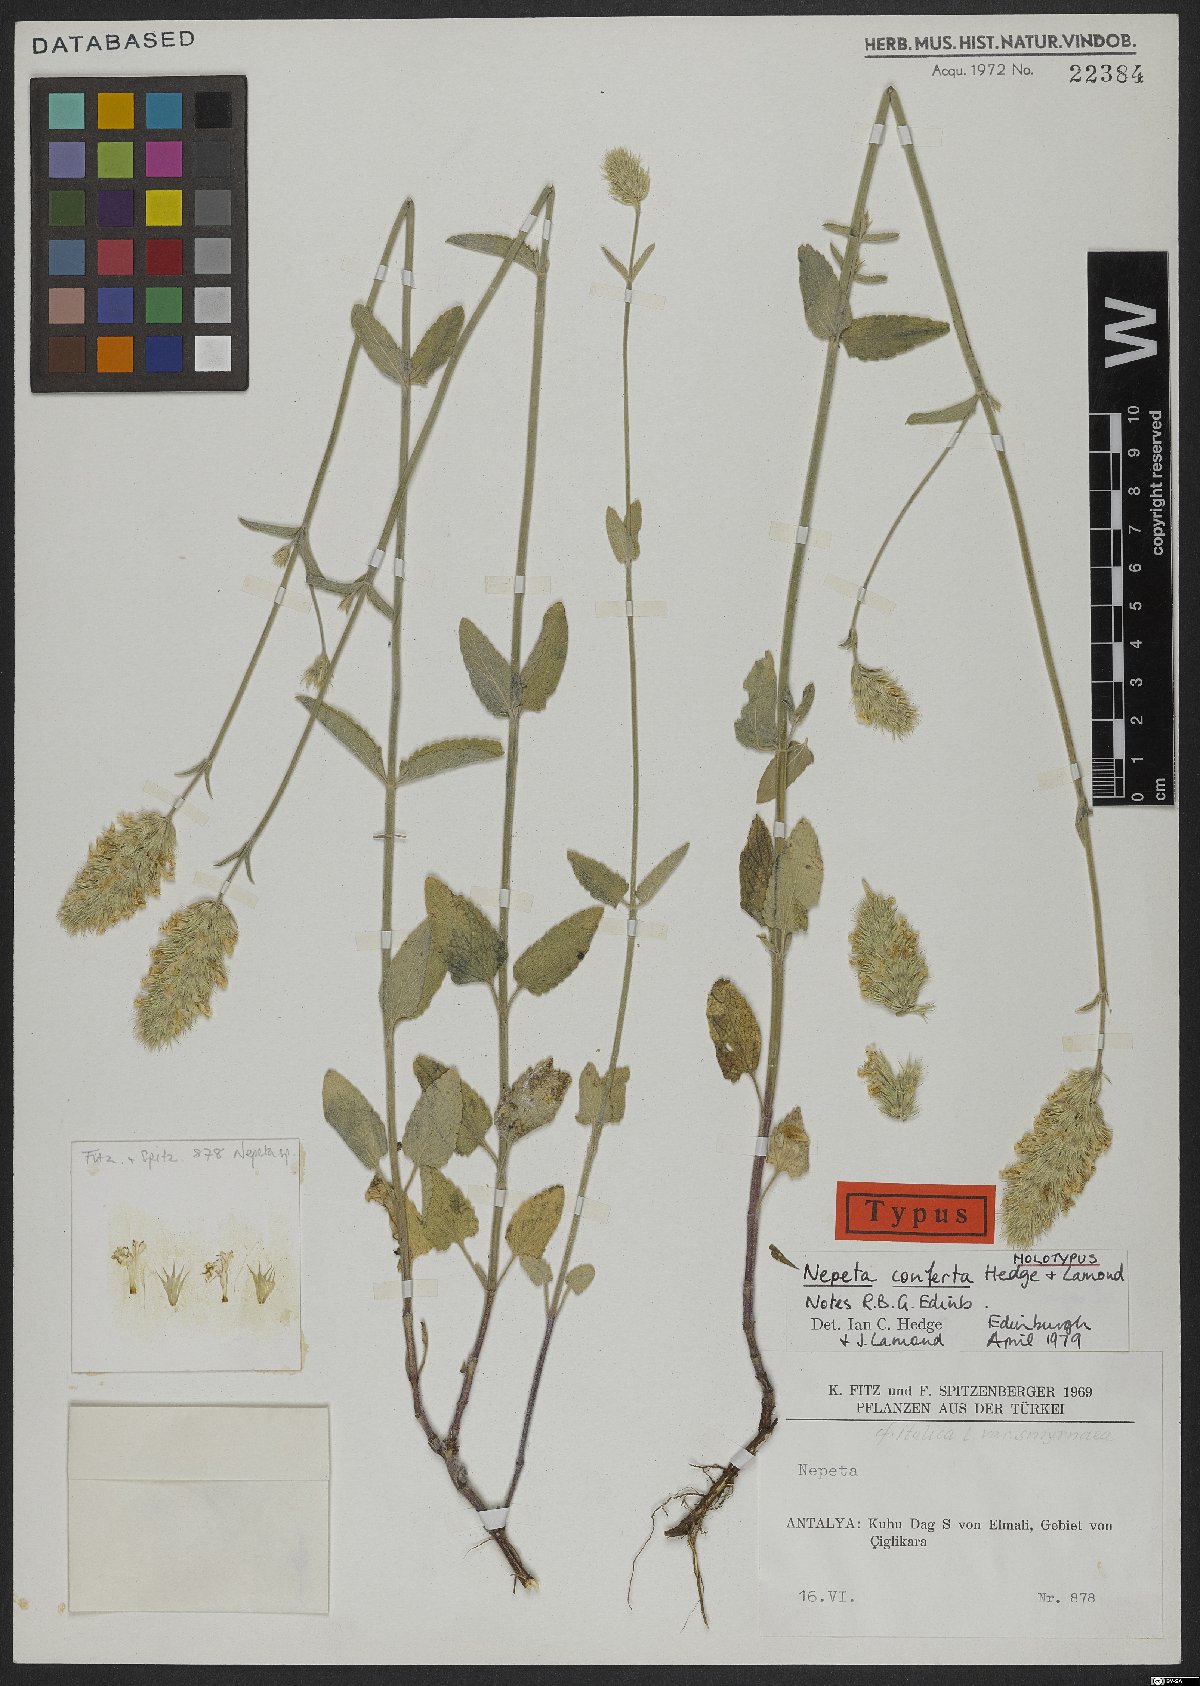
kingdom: Plantae
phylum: Tracheophyta
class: Magnoliopsida
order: Lamiales
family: Lamiaceae
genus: Nepeta
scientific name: Nepeta conferta
